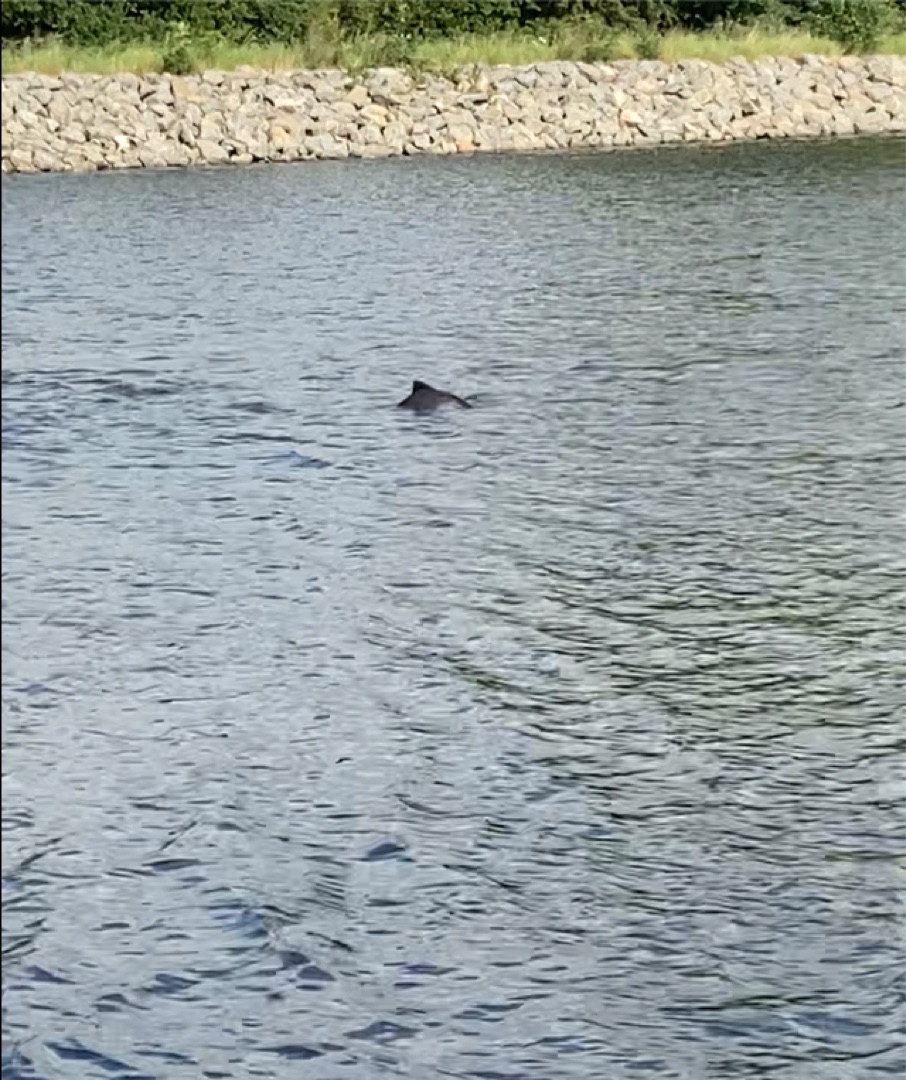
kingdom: Animalia
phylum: Chordata
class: Mammalia
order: Cetacea
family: Phocoenidae
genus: Phocoena
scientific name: Phocoena phocoena
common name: Marsvin
